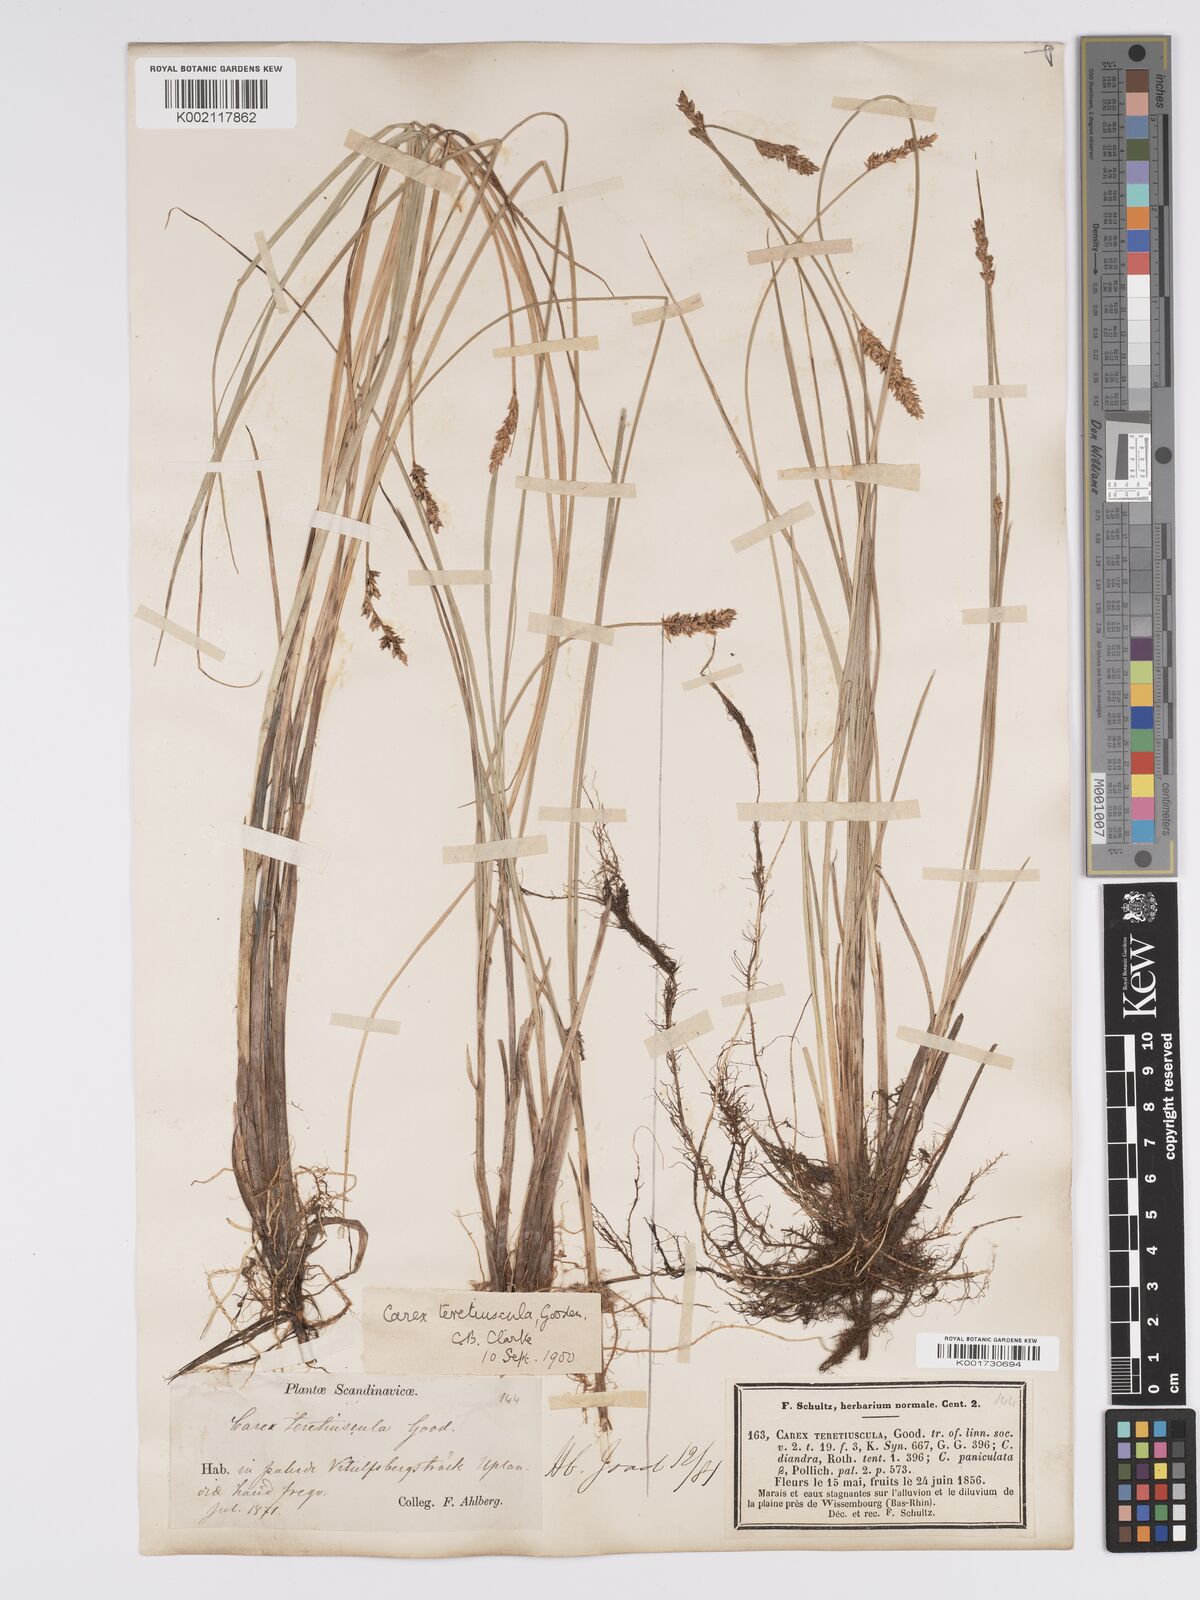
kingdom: Plantae
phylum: Tracheophyta
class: Liliopsida
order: Poales
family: Cyperaceae
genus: Carex
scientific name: Carex diandra
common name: Lesser tussock-sedge
